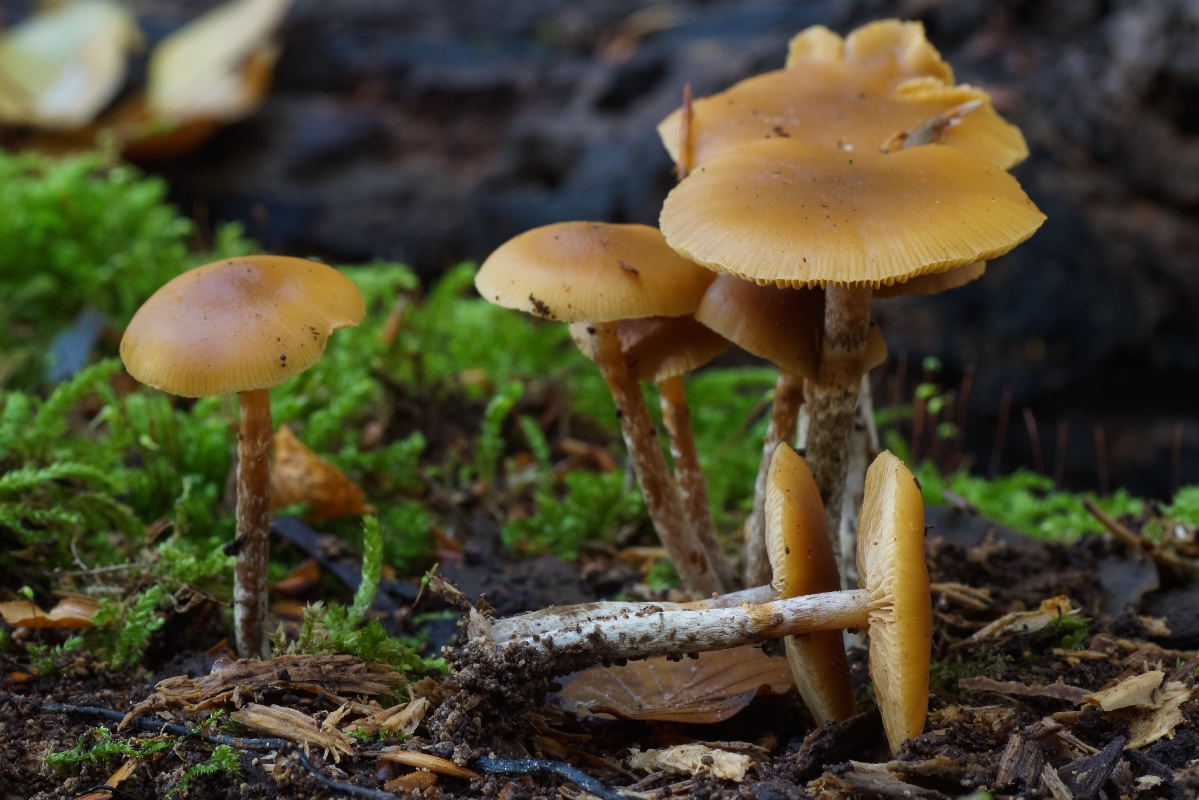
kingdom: Fungi
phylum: Basidiomycota
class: Agaricomycetes
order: Agaricales
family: Hymenogastraceae
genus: Galerina
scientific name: Galerina marginata
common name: randbæltet hjelmhat
